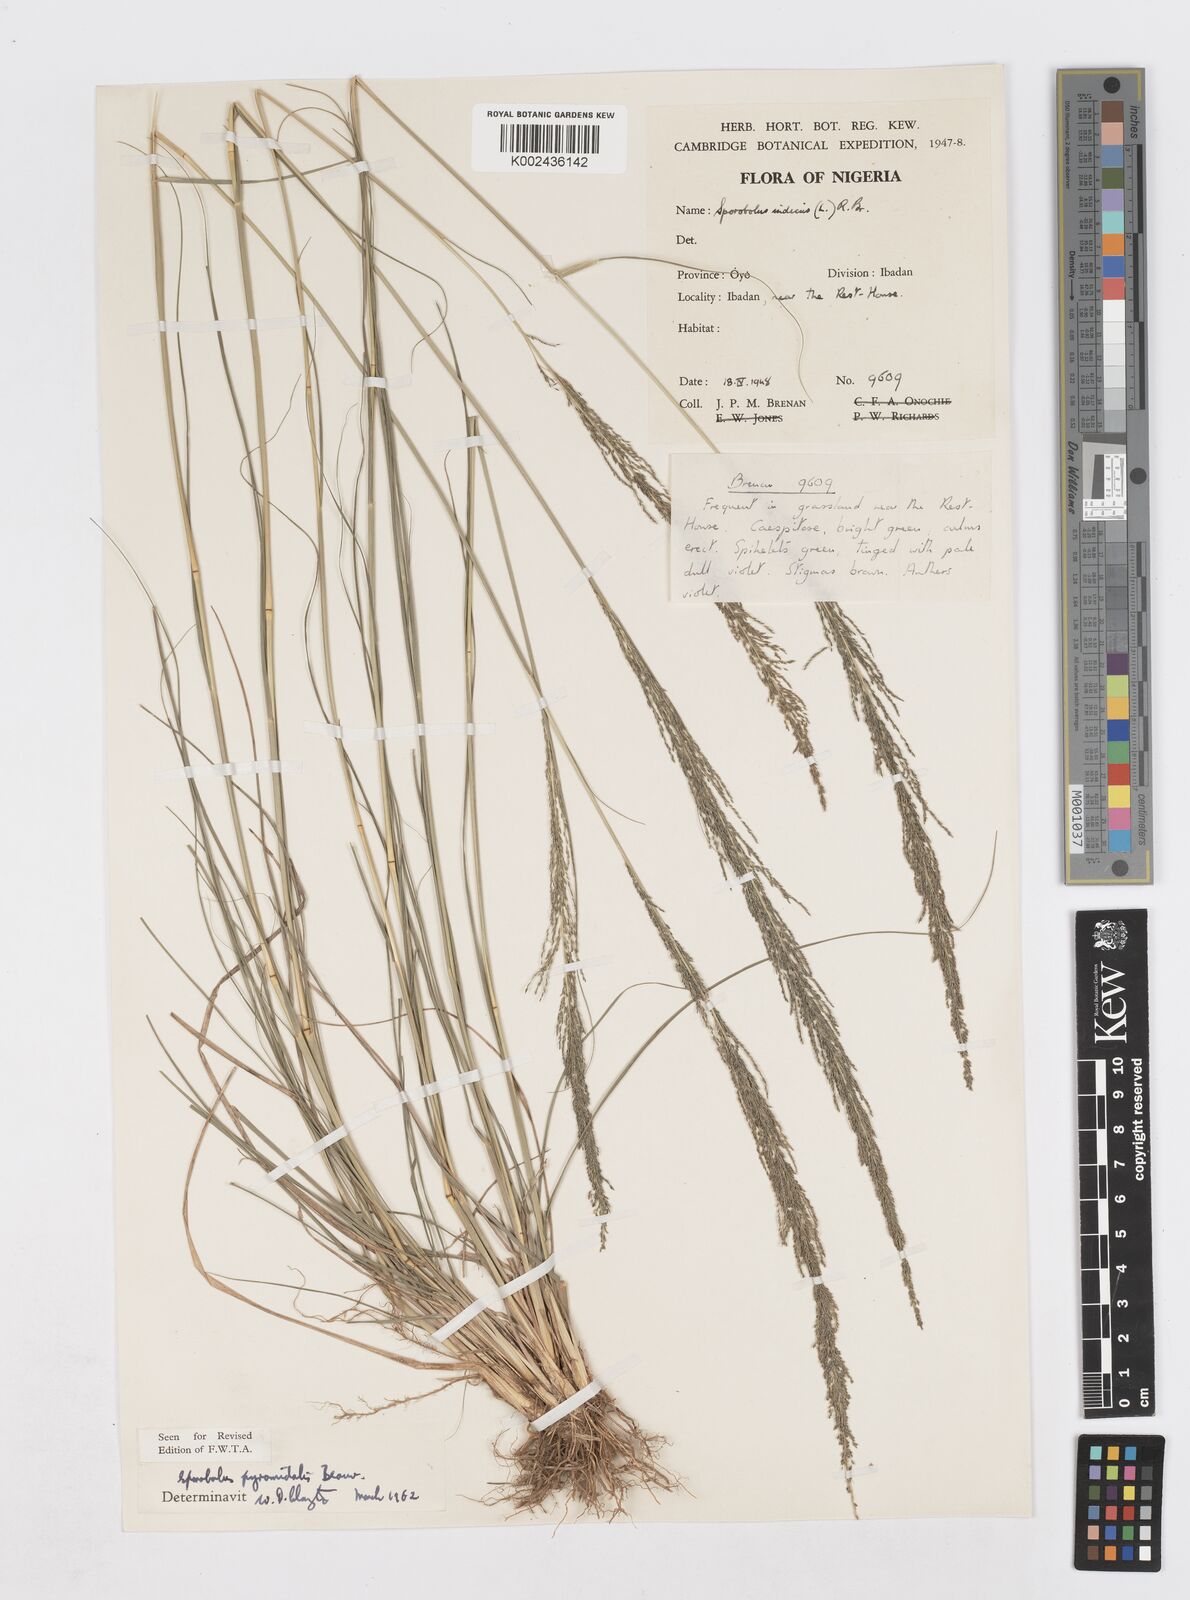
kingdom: Plantae
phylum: Tracheophyta
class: Liliopsida
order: Poales
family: Poaceae
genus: Sporobolus
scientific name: Sporobolus pyramidalis
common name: West indian dropseed
